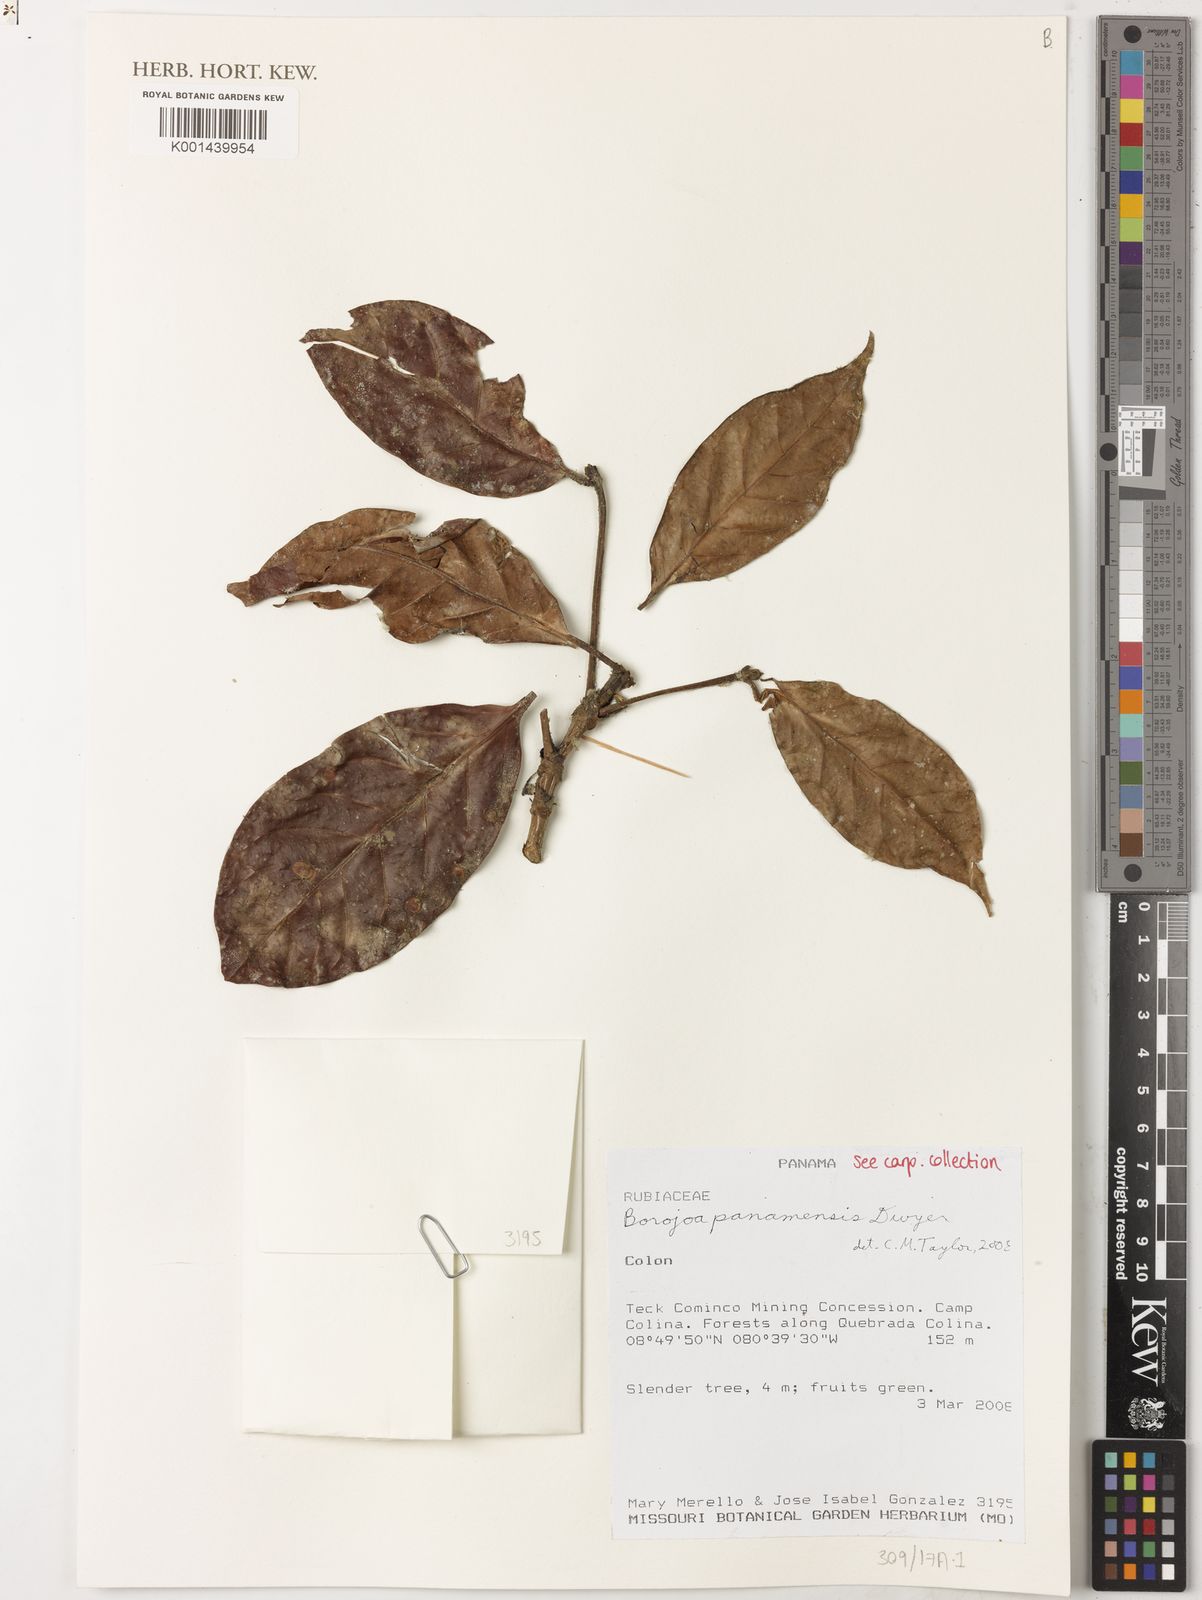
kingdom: Plantae
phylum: Tracheophyta
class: Magnoliopsida
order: Gentianales
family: Rubiaceae
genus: Alibertia
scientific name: Alibertia dwyeri
